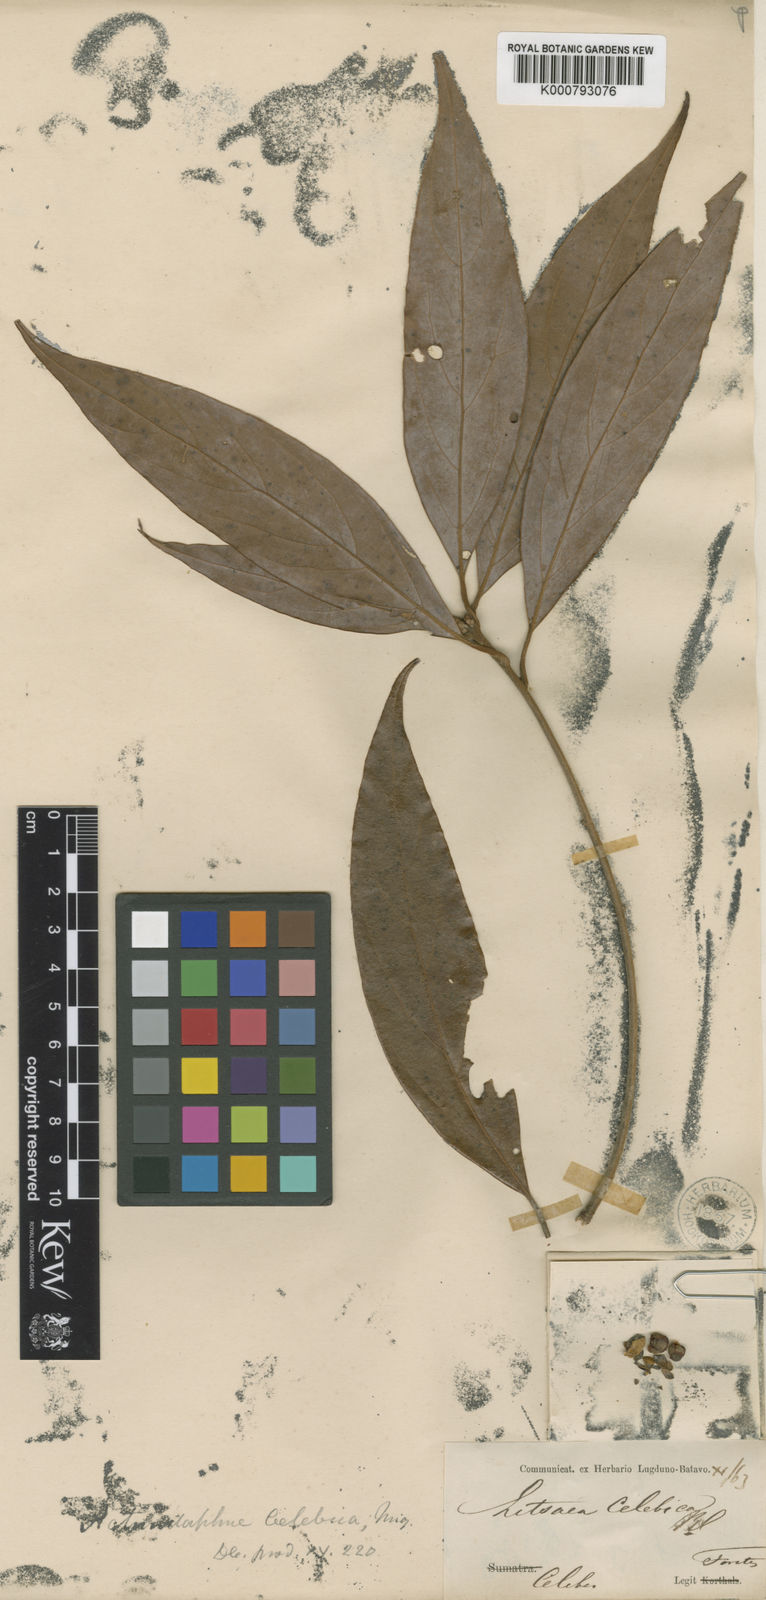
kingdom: Plantae
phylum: Tracheophyta
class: Magnoliopsida
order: Laurales
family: Lauraceae
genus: Actinodaphne
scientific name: Actinodaphne celebica
